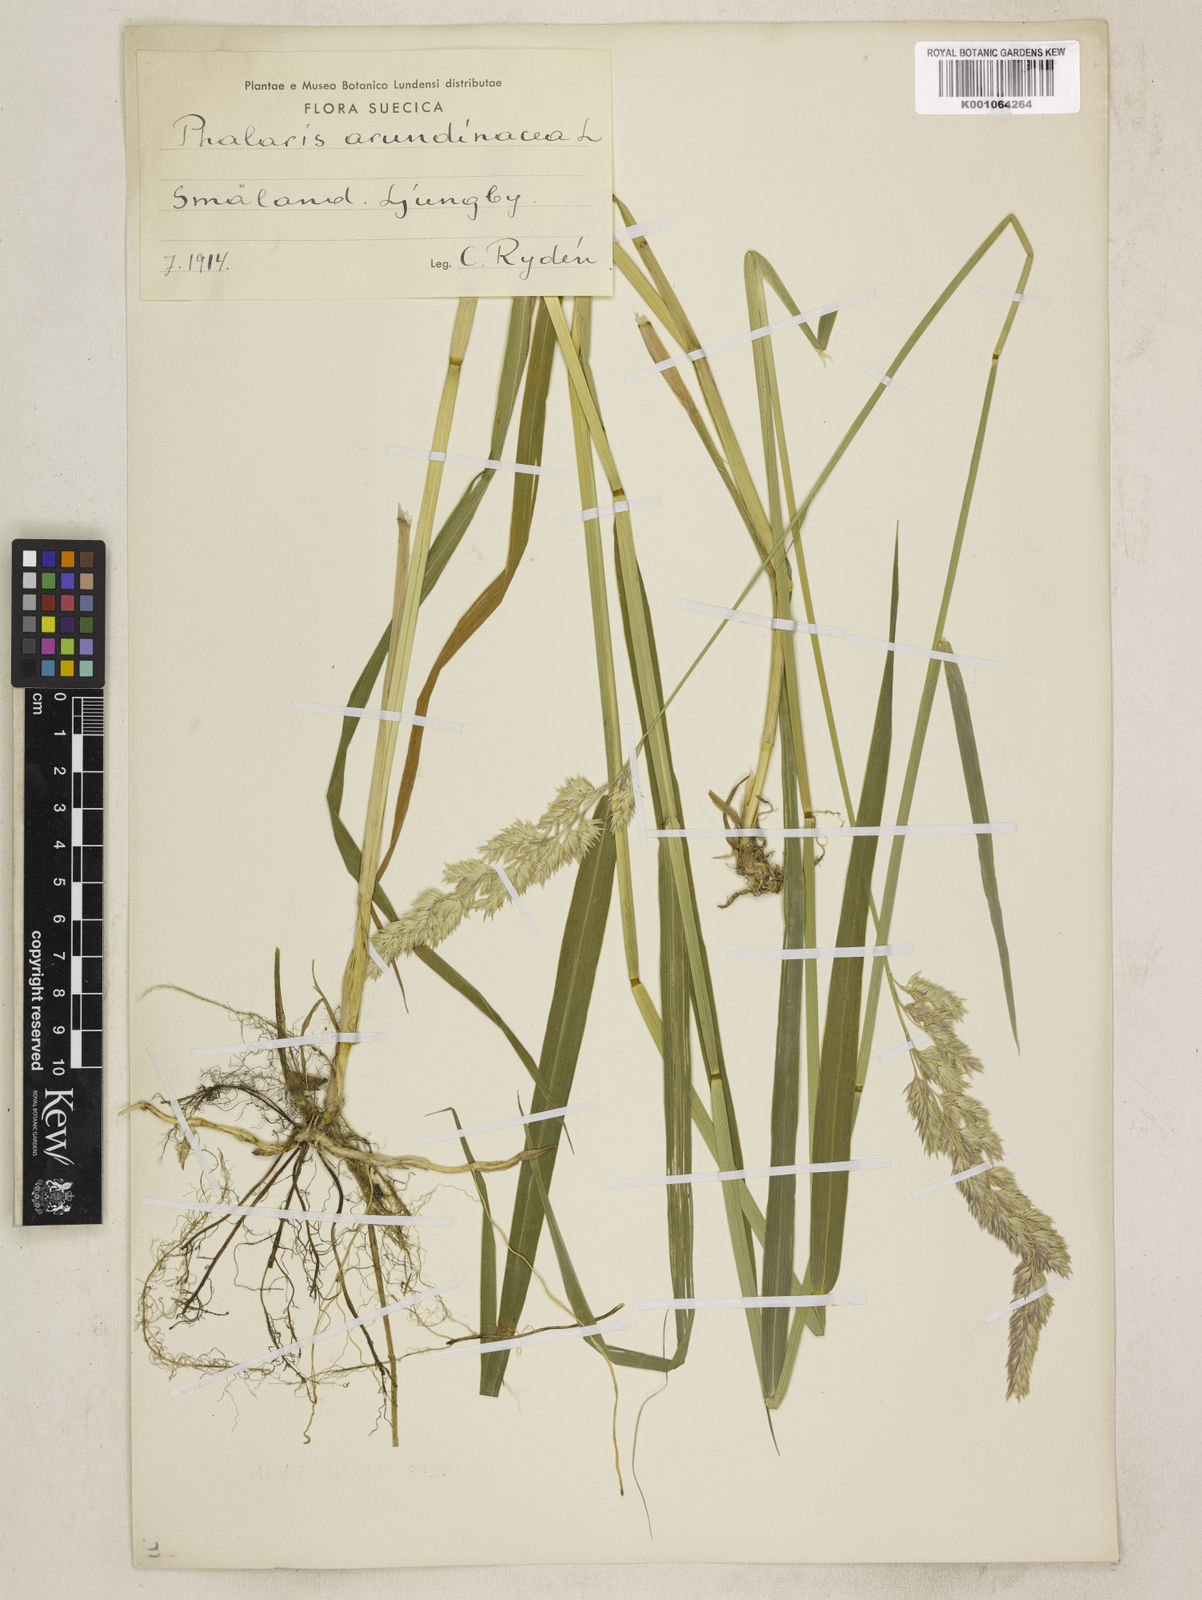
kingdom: Plantae
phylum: Tracheophyta
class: Liliopsida
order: Poales
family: Poaceae
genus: Phalaris
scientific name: Phalaris arundinacea
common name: Reed canary-grass
